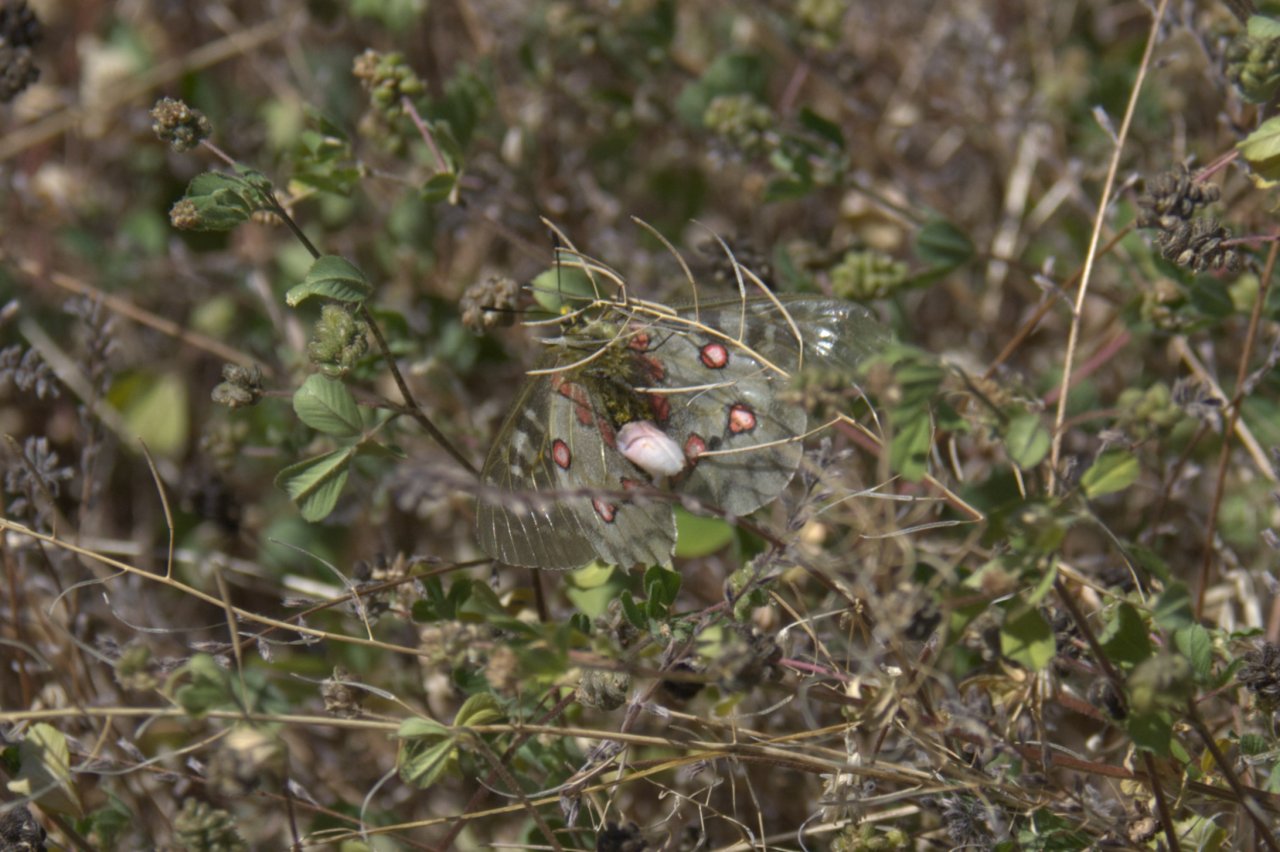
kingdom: Animalia
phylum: Arthropoda
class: Insecta
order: Lepidoptera
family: Papilionidae
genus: Parnassius
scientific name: Parnassius clodius
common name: Clodius Parnassian
